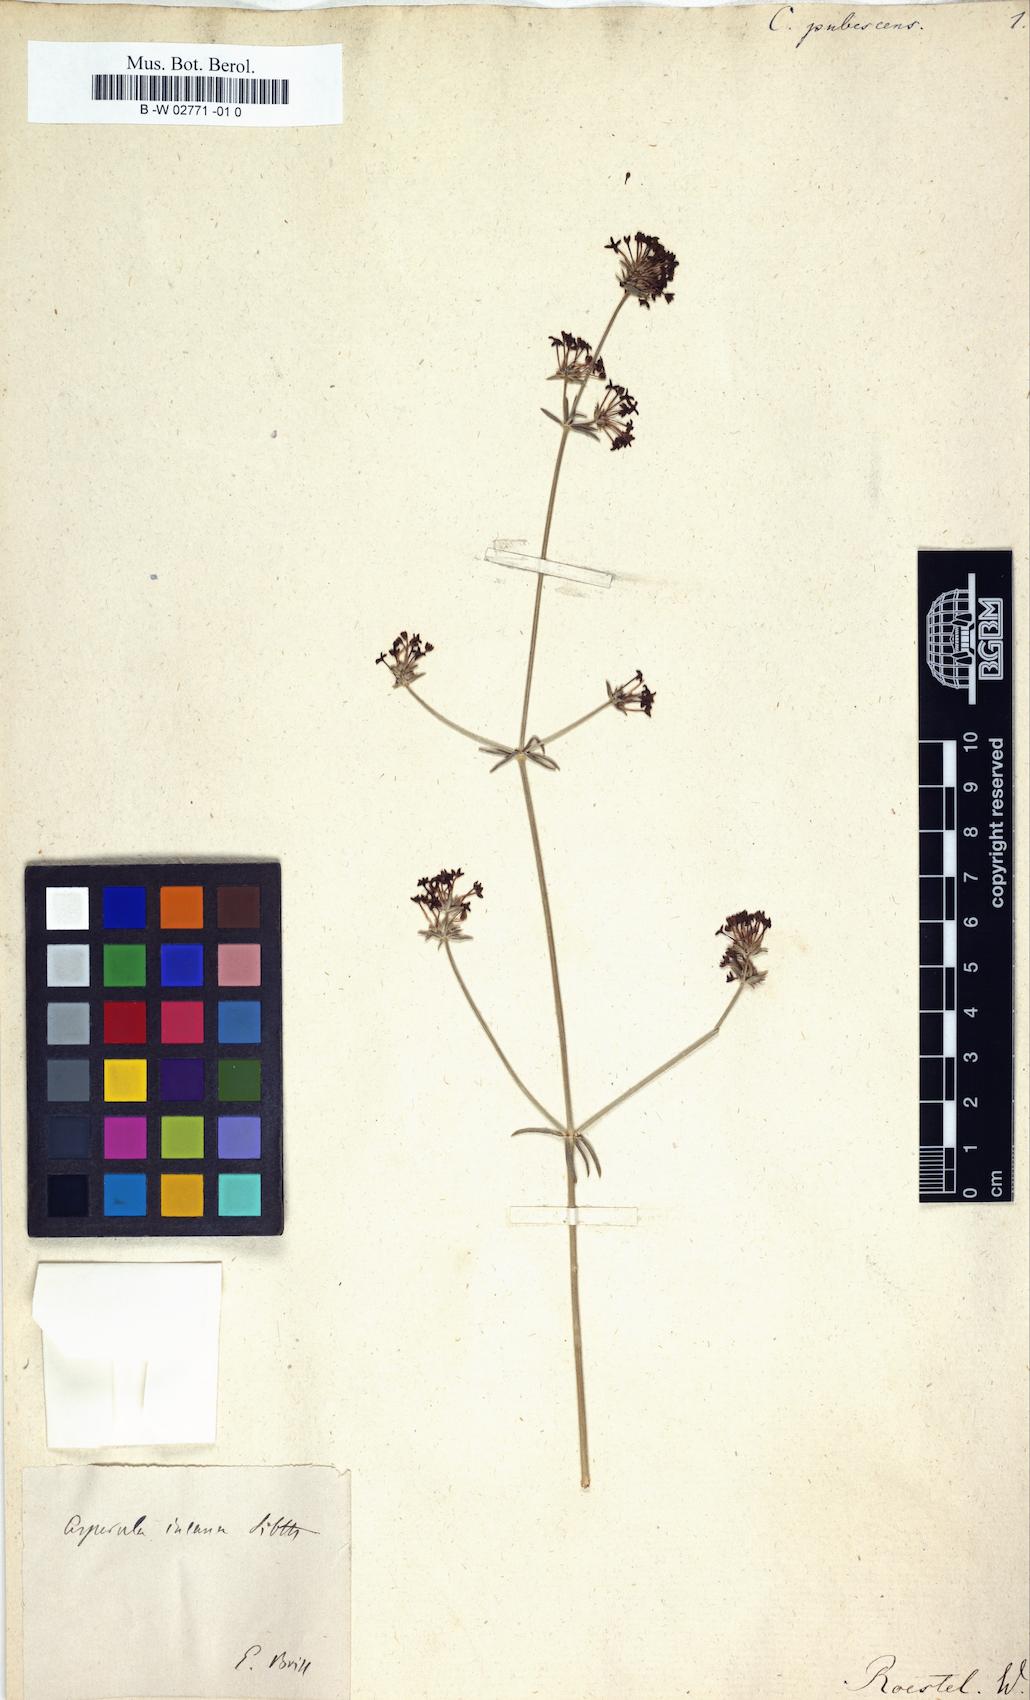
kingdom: Plantae
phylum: Tracheophyta
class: Magnoliopsida
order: Gentianales
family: Rubiaceae
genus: Hexaphylla
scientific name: Hexaphylla pubescens
